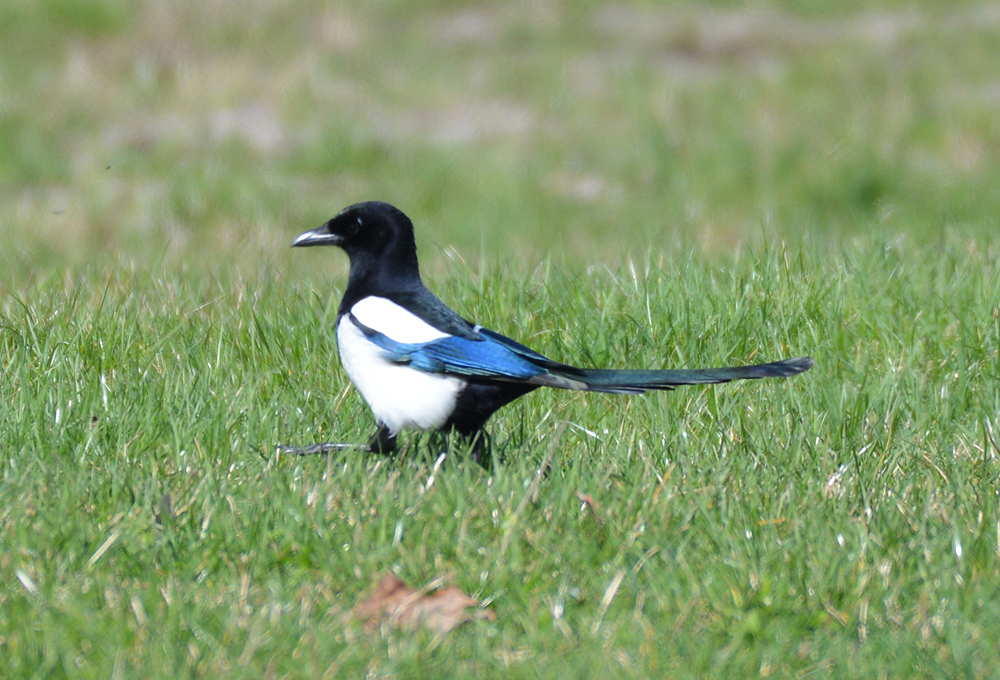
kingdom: Animalia
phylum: Chordata
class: Aves
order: Passeriformes
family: Corvidae
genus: Pica
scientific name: Pica pica
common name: Eurasian magpie
